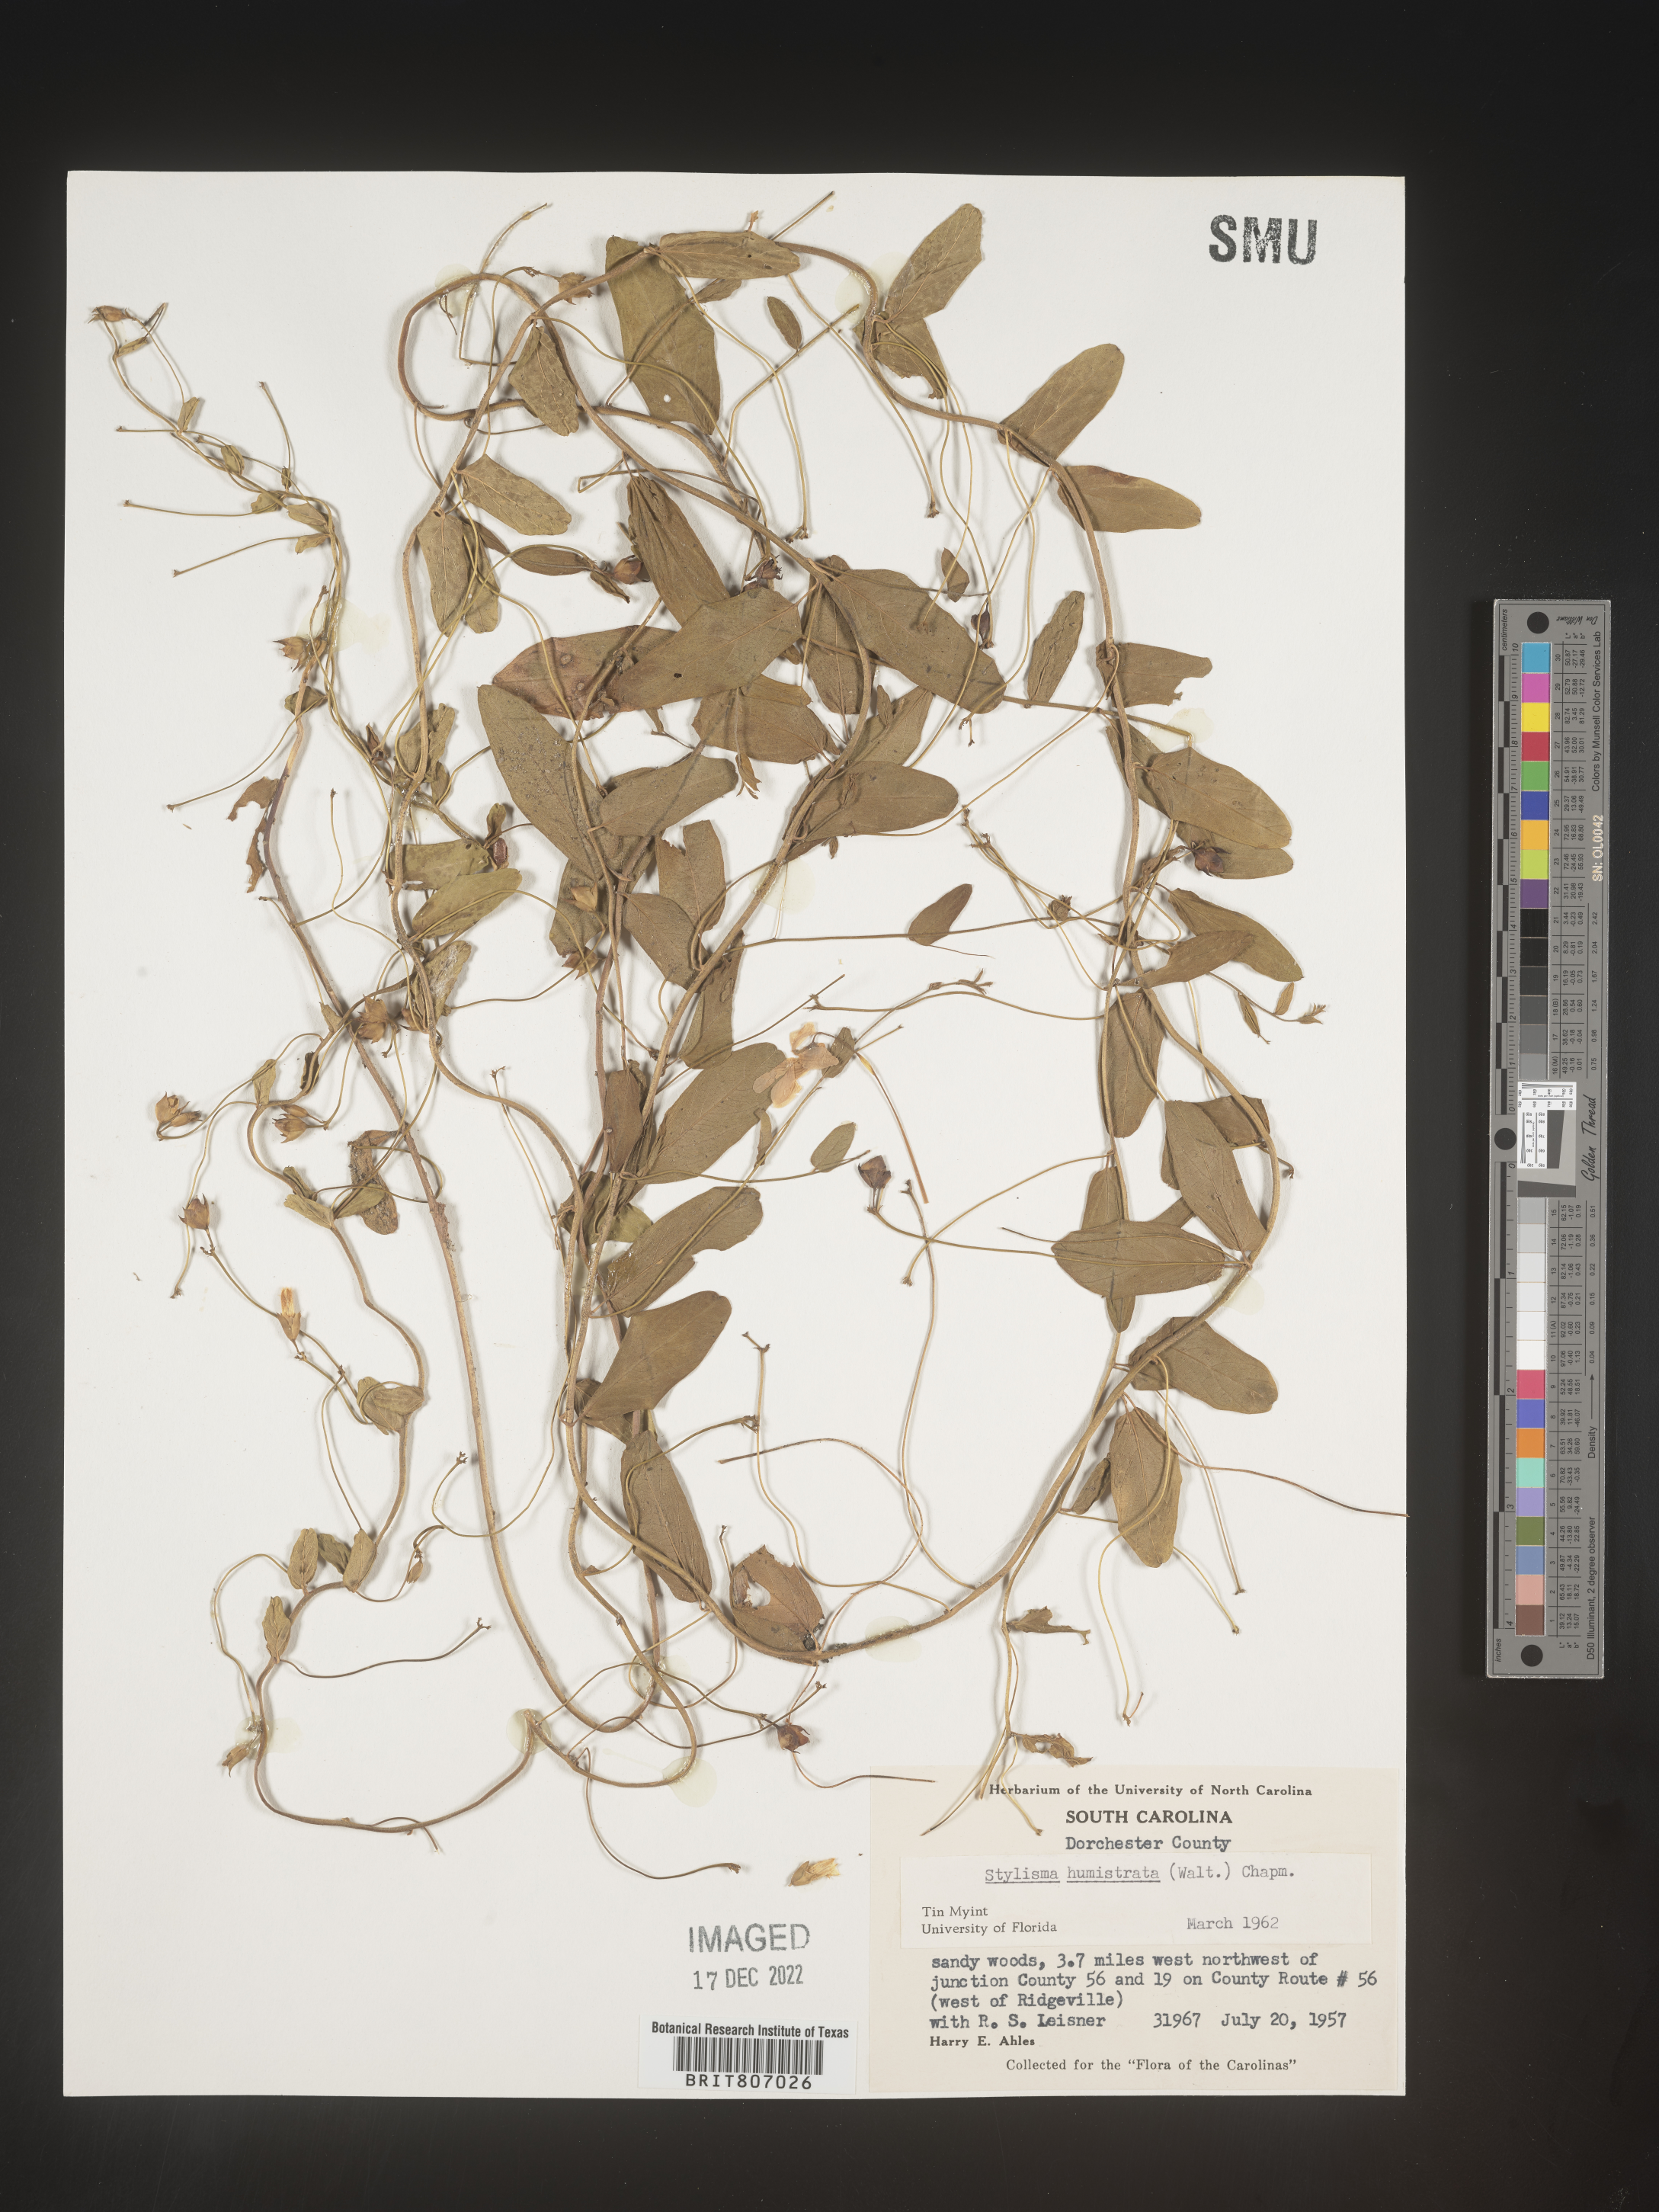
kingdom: Plantae
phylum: Tracheophyta
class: Magnoliopsida
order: Solanales
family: Convolvulaceae
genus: Stylisma
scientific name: Stylisma humistrata
